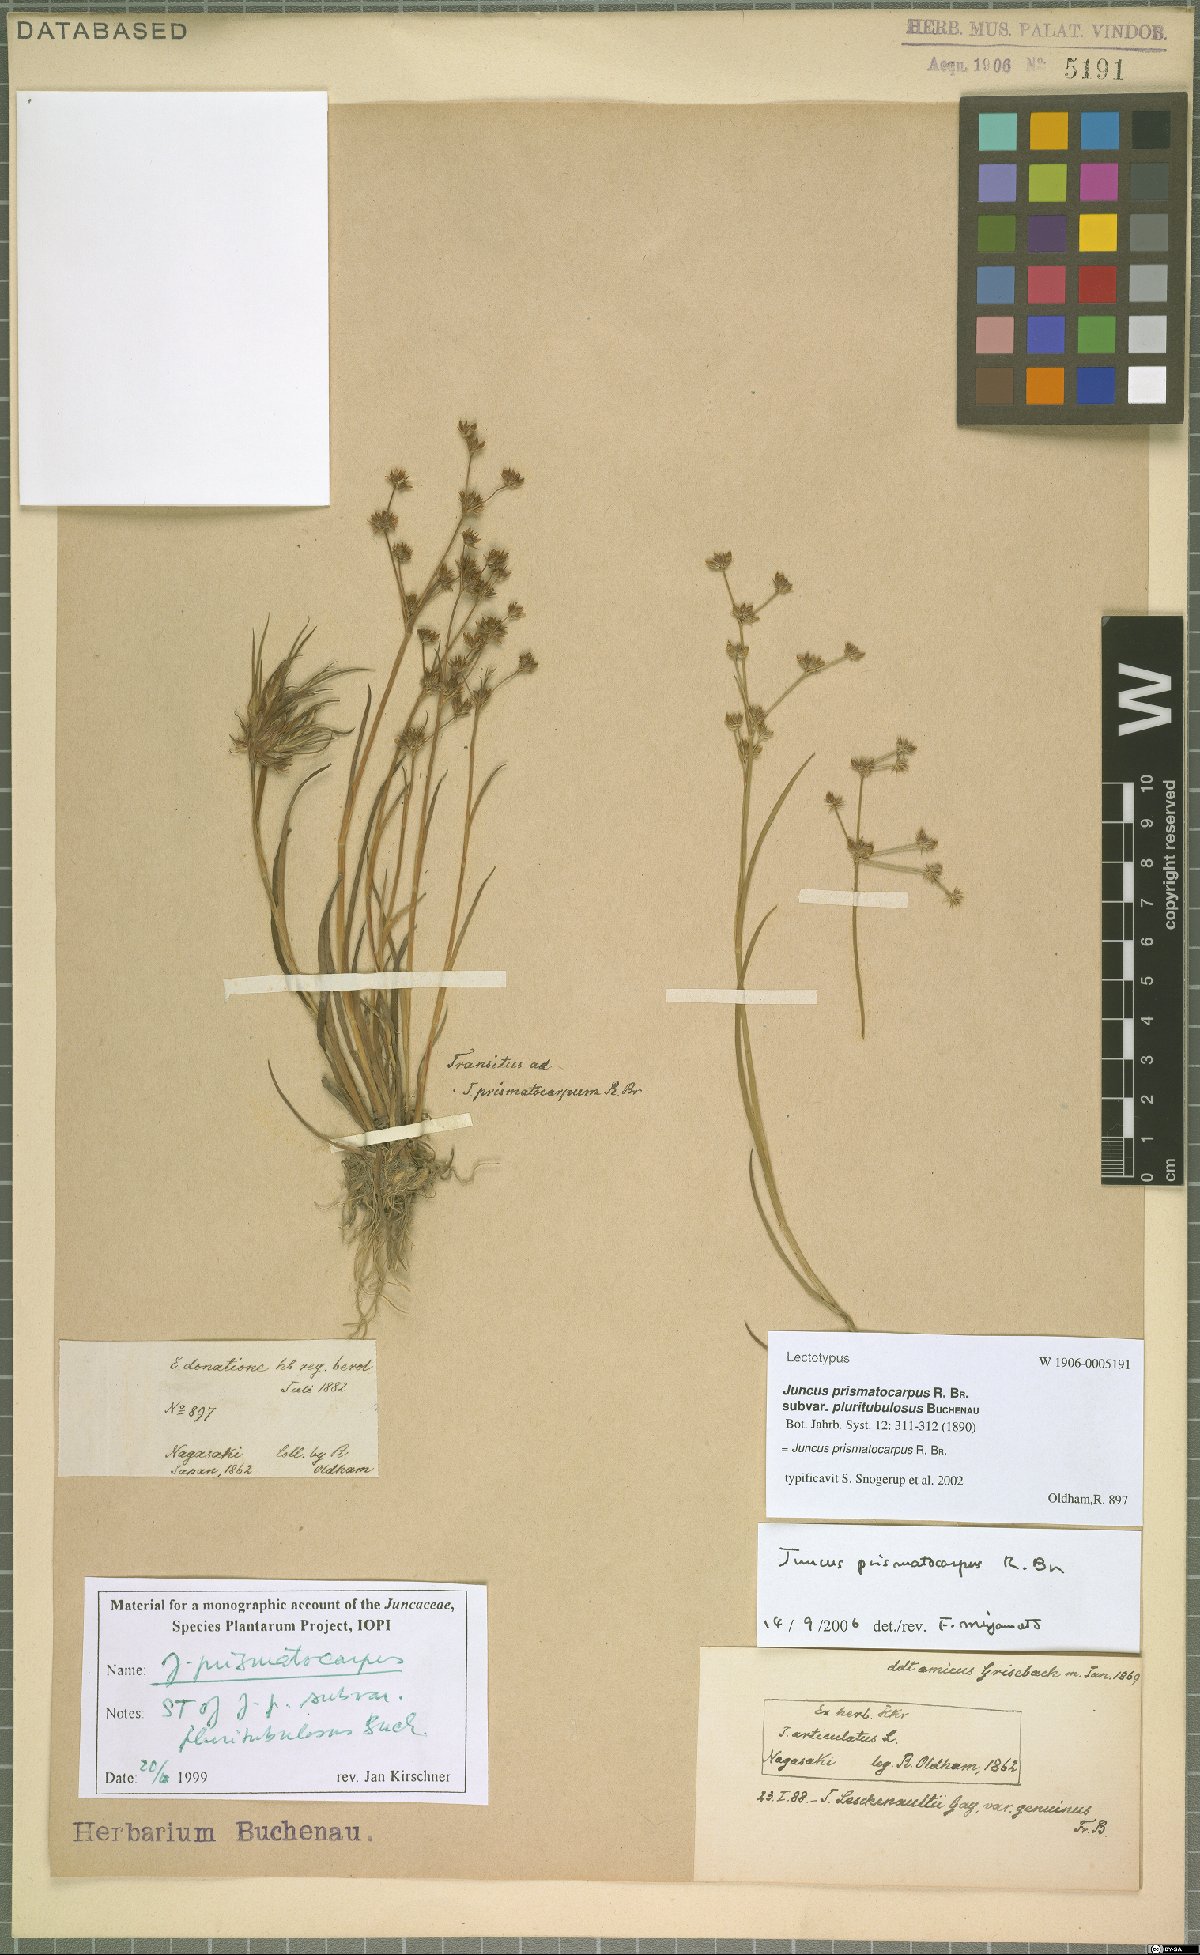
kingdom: Plantae
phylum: Tracheophyta
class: Liliopsida
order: Poales
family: Juncaceae
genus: Juncus
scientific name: Juncus prismatocarpus
